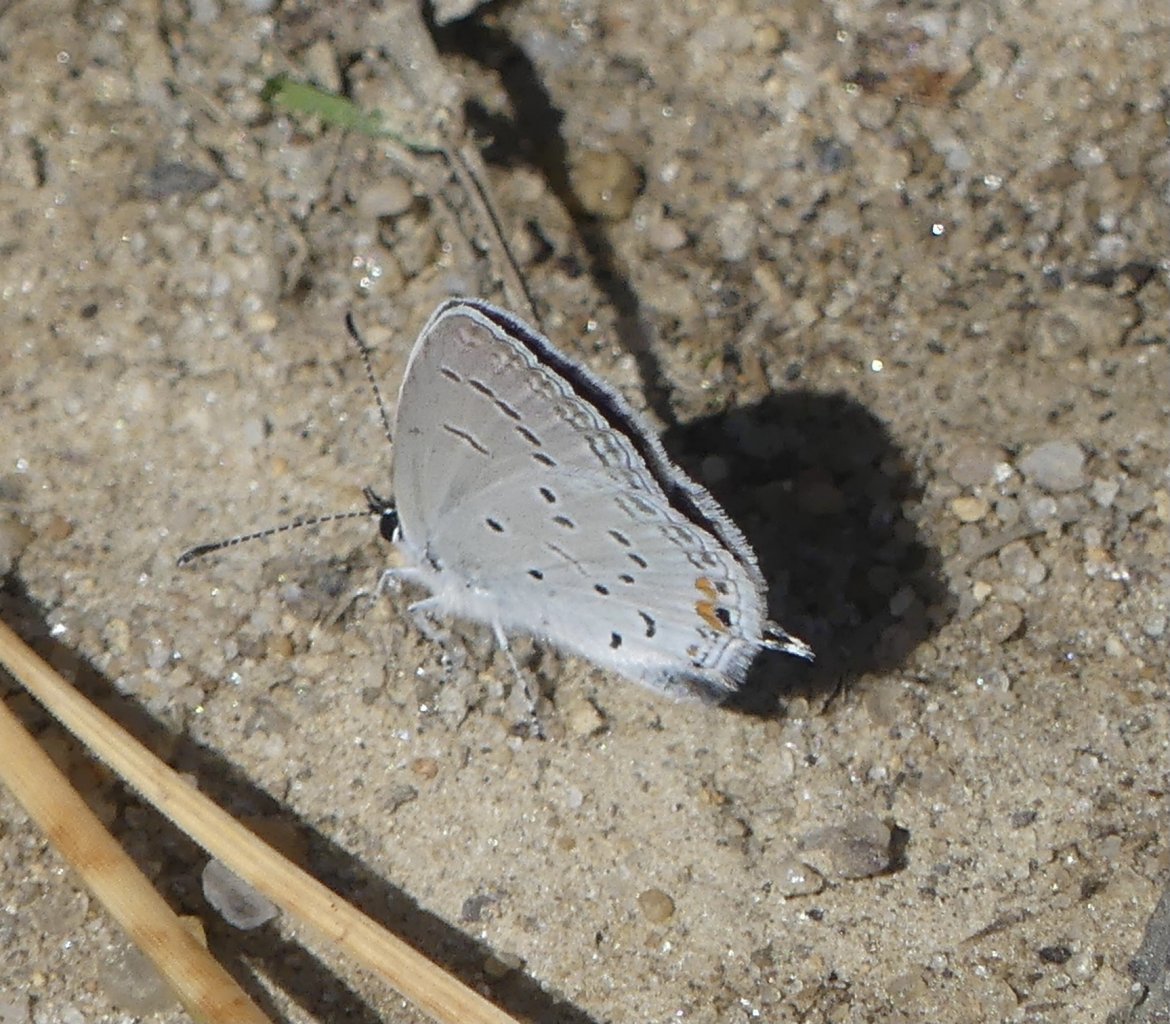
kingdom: Animalia
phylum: Arthropoda
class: Insecta
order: Lepidoptera
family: Lycaenidae
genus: Elkalyce
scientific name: Elkalyce comyntas
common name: Eastern Tailed-Blue
